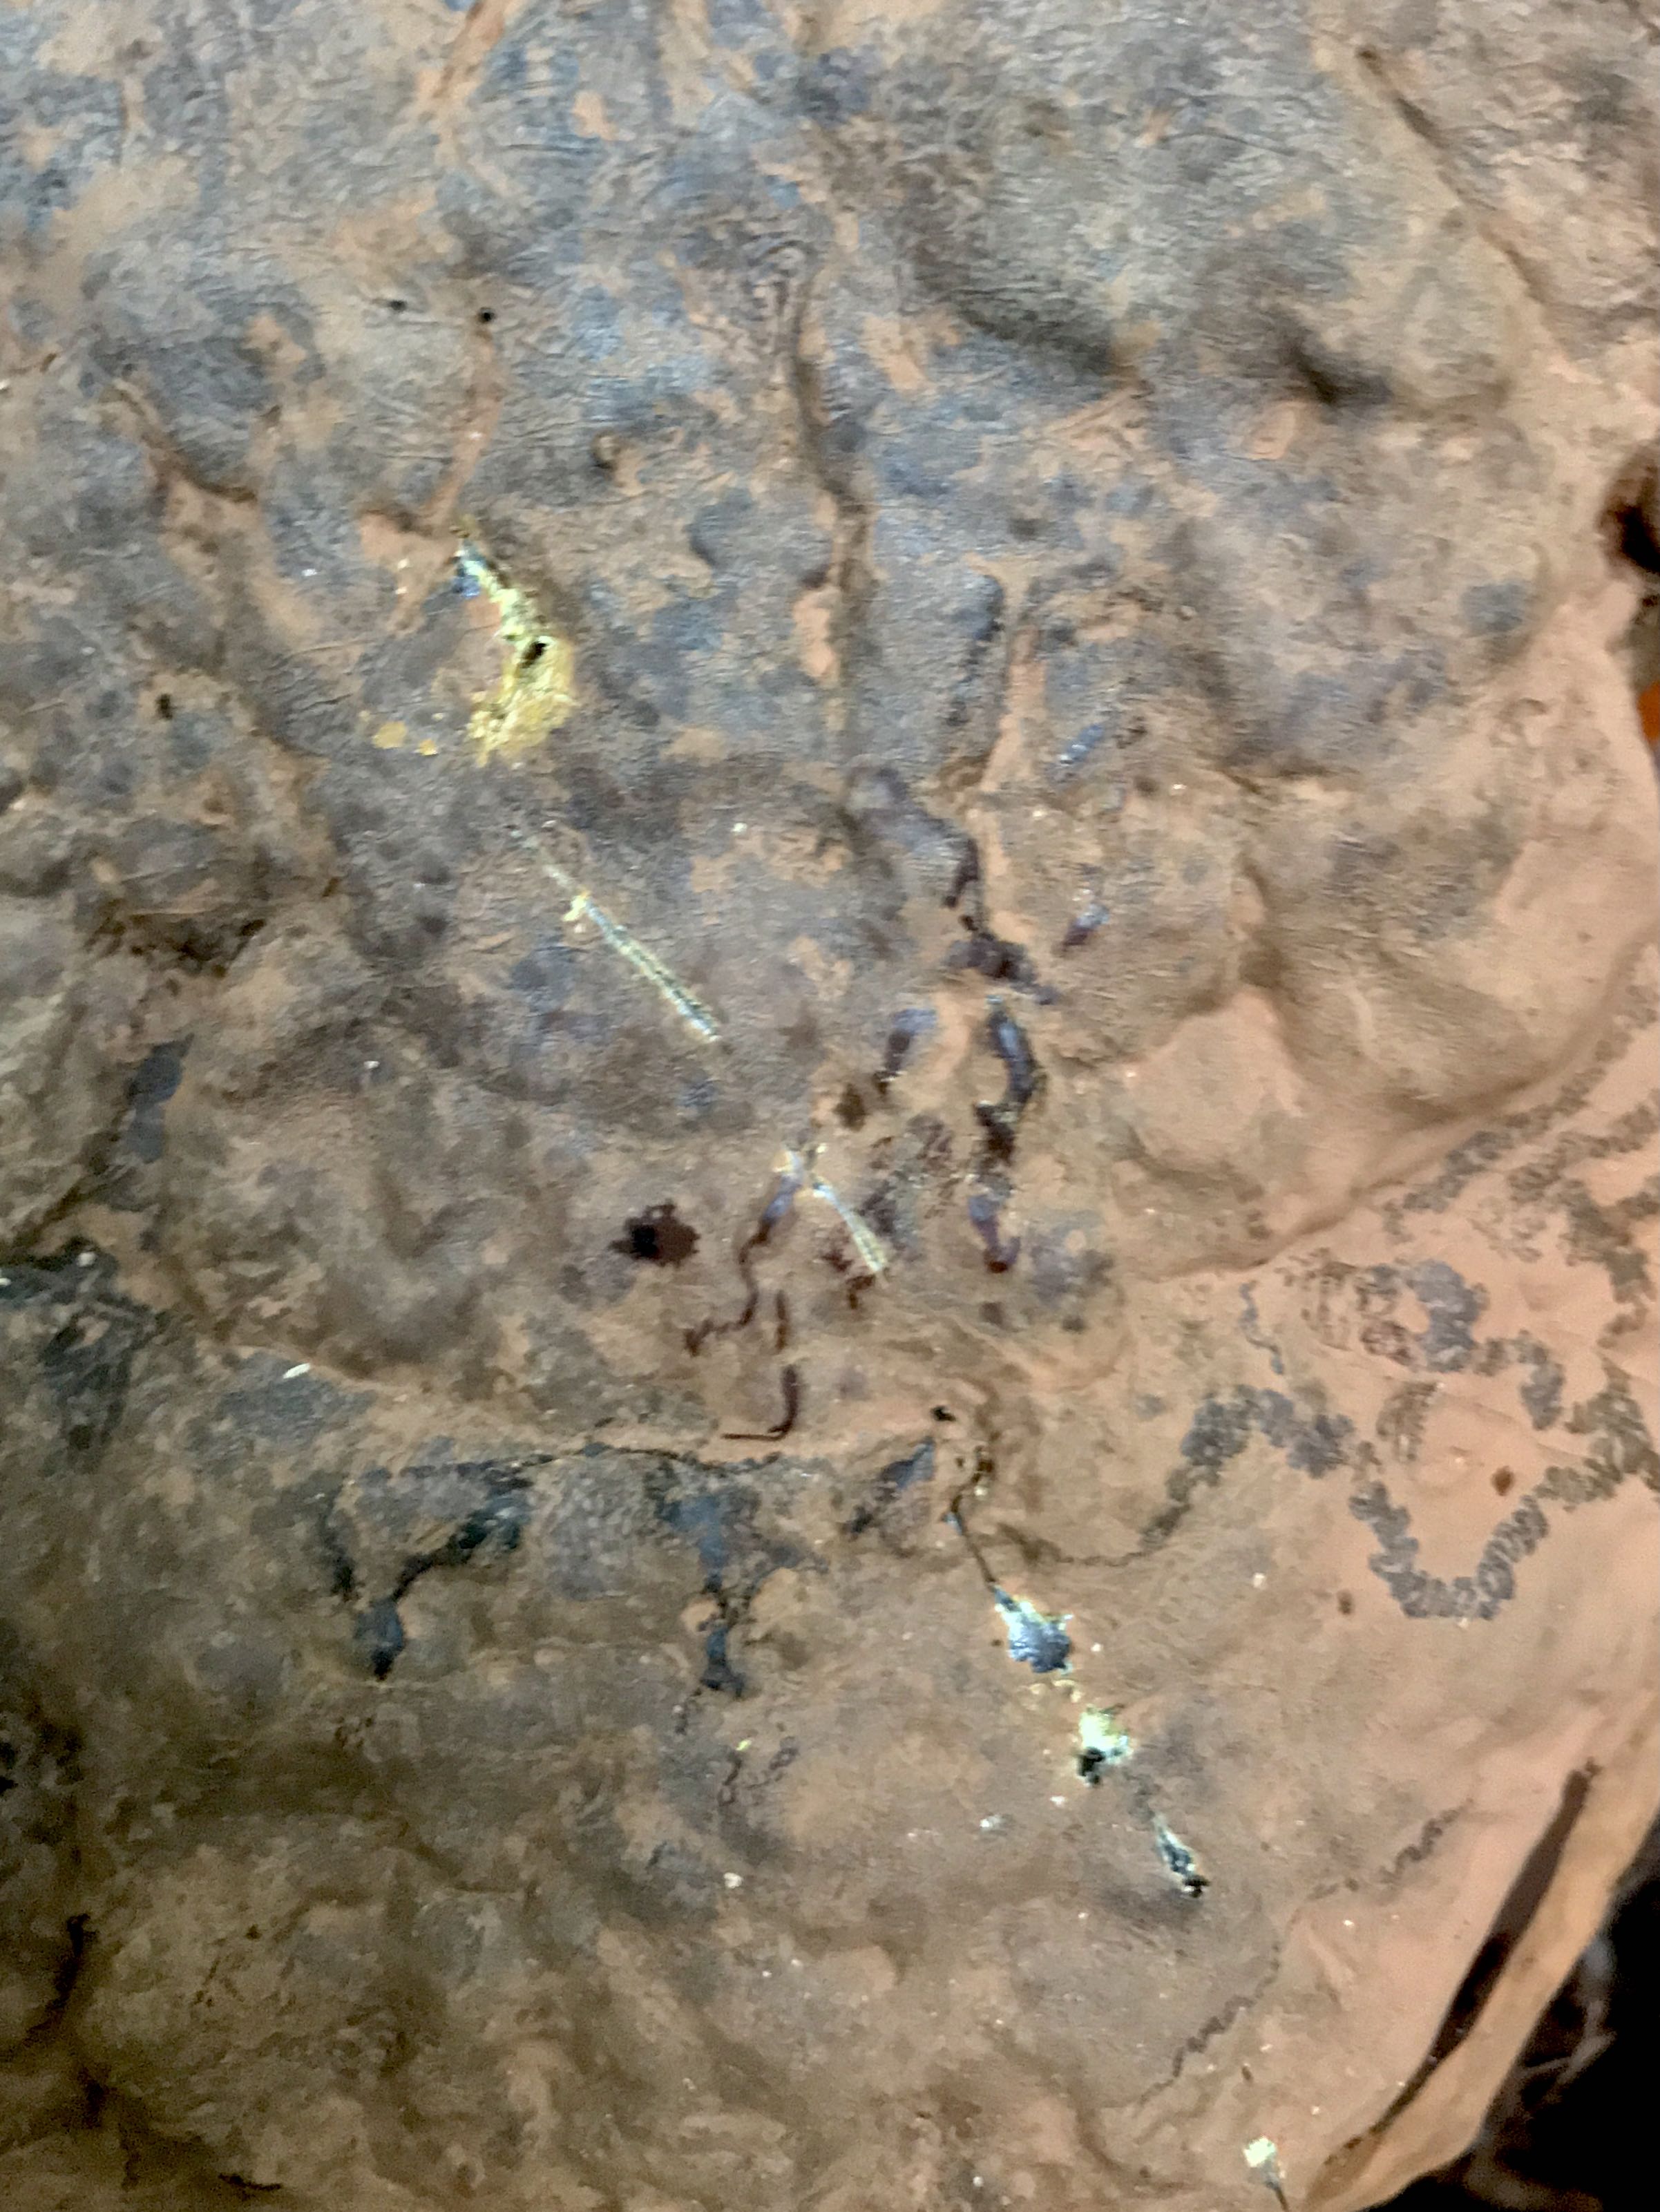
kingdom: Fungi
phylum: Basidiomycota
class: Agaricomycetes
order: Polyporales
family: Polyporaceae
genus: Ganoderma
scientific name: Ganoderma pfeifferi
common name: kobberrød lakporesvamp
